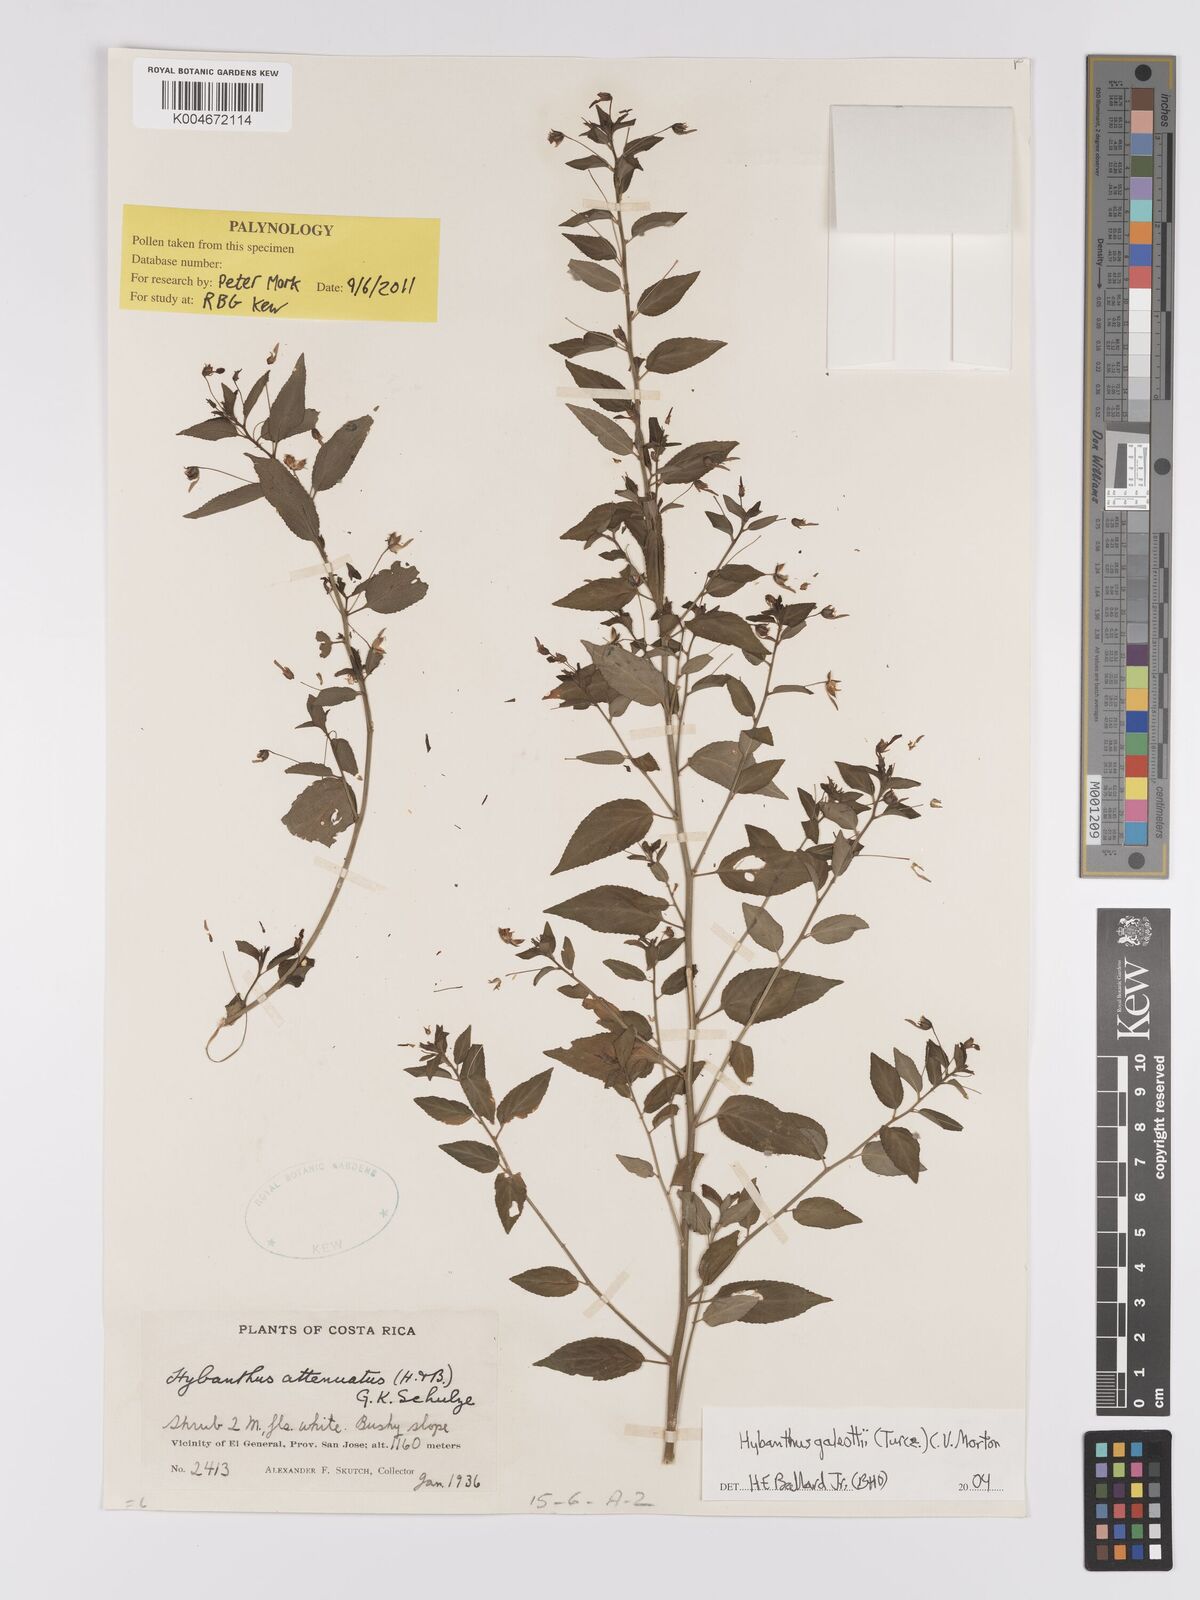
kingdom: Plantae
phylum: Tracheophyta
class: Magnoliopsida
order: Malpighiales
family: Violaceae
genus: Hybanthus
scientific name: Hybanthus galeottii
